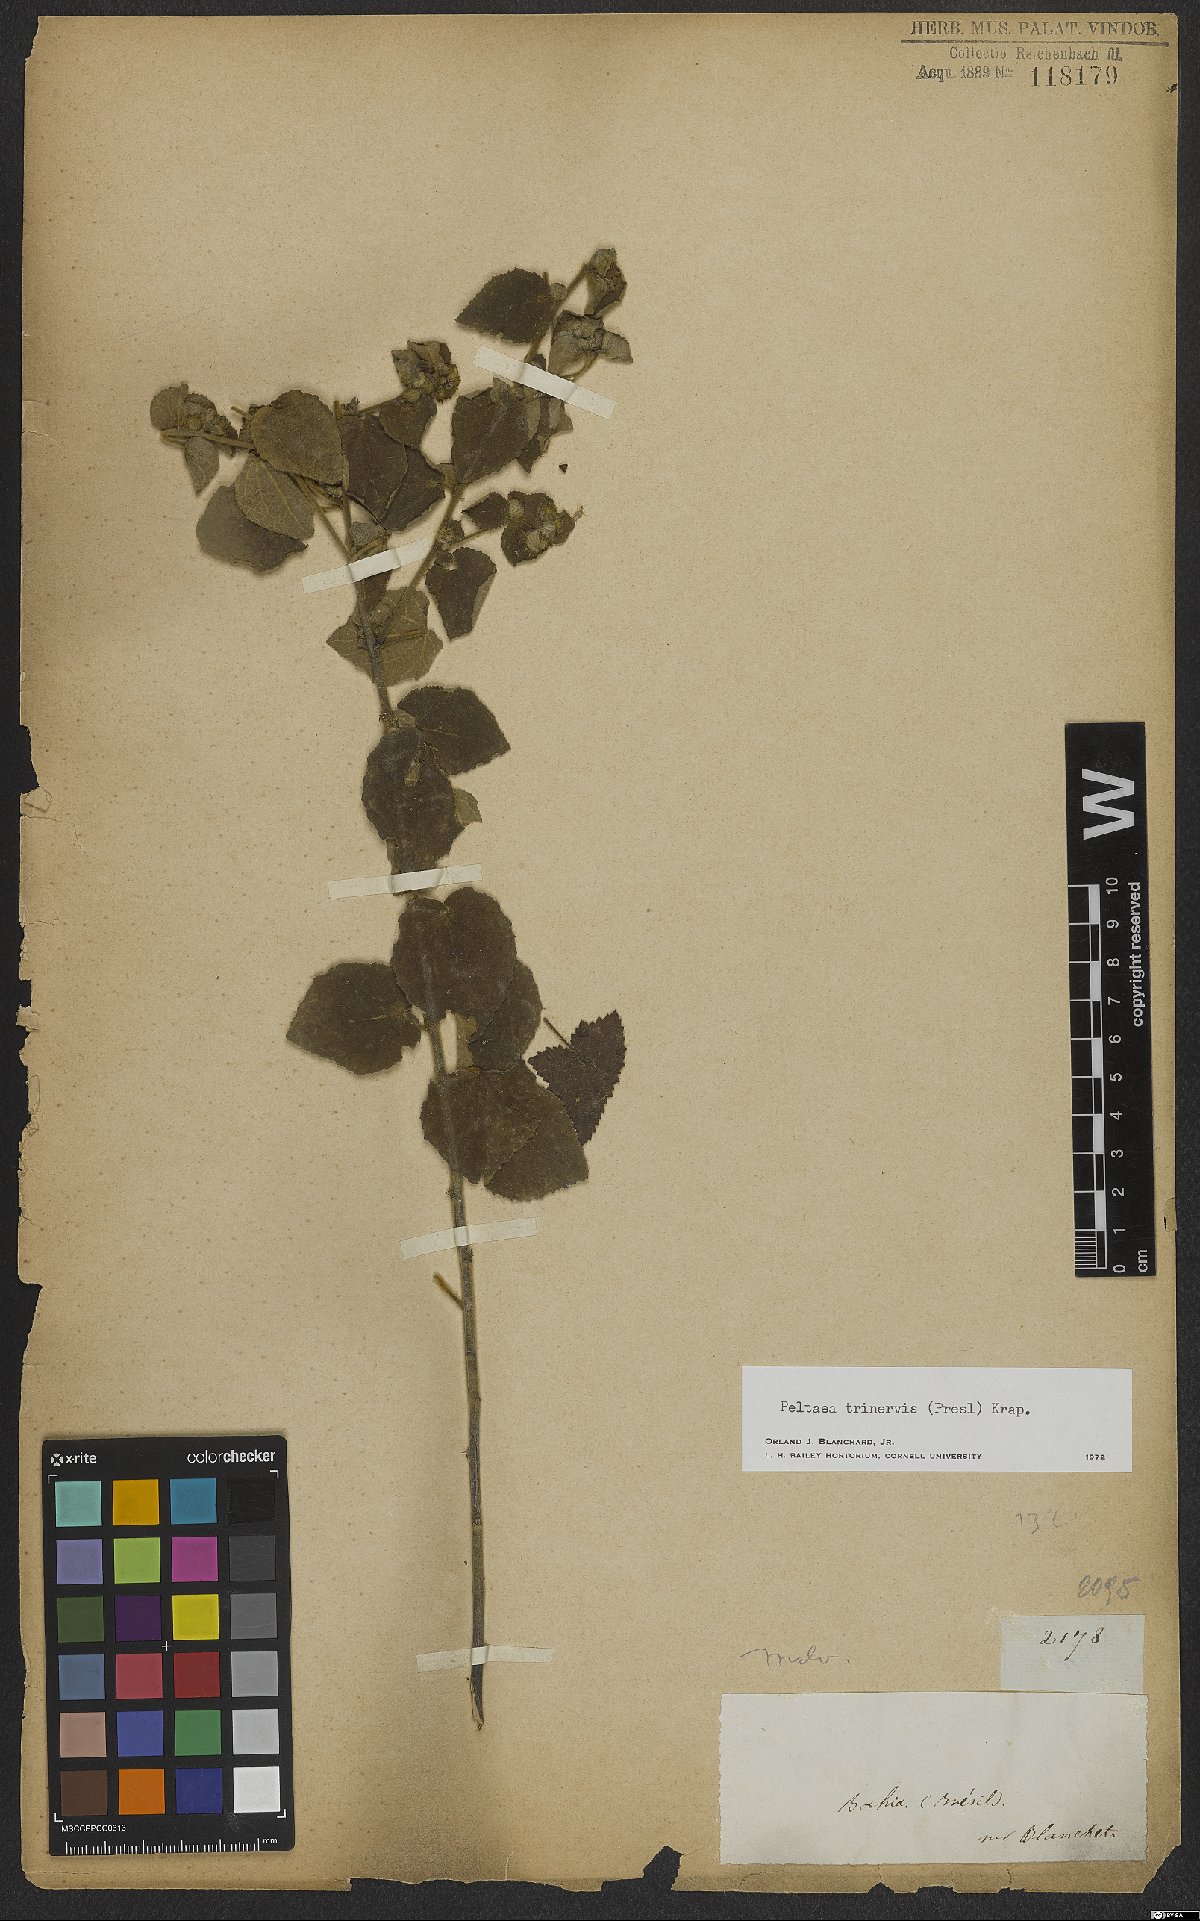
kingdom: Plantae
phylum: Tracheophyta
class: Magnoliopsida
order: Malvales
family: Malvaceae
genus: Peltaea
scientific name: Peltaea trinervis
